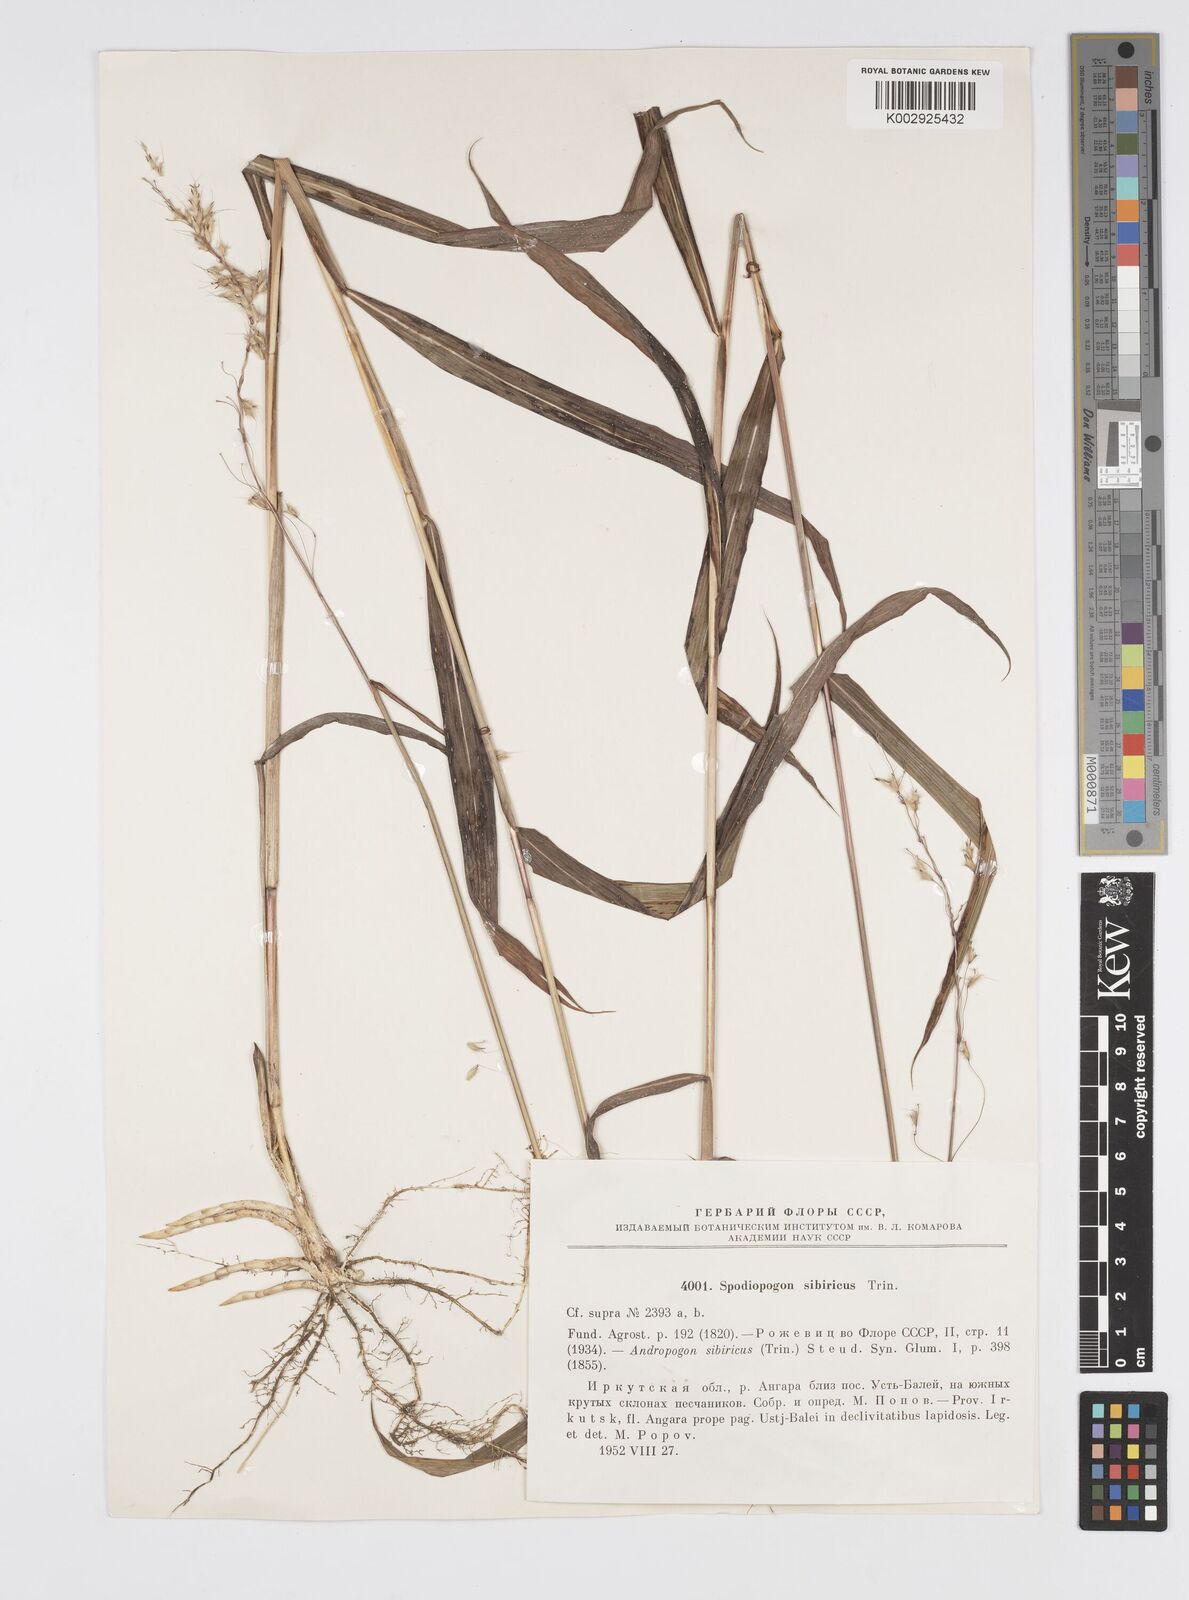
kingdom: Plantae
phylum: Tracheophyta
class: Liliopsida
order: Poales
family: Poaceae
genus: Spodiopogon
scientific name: Spodiopogon sibiricus
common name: Siberian graybeard
